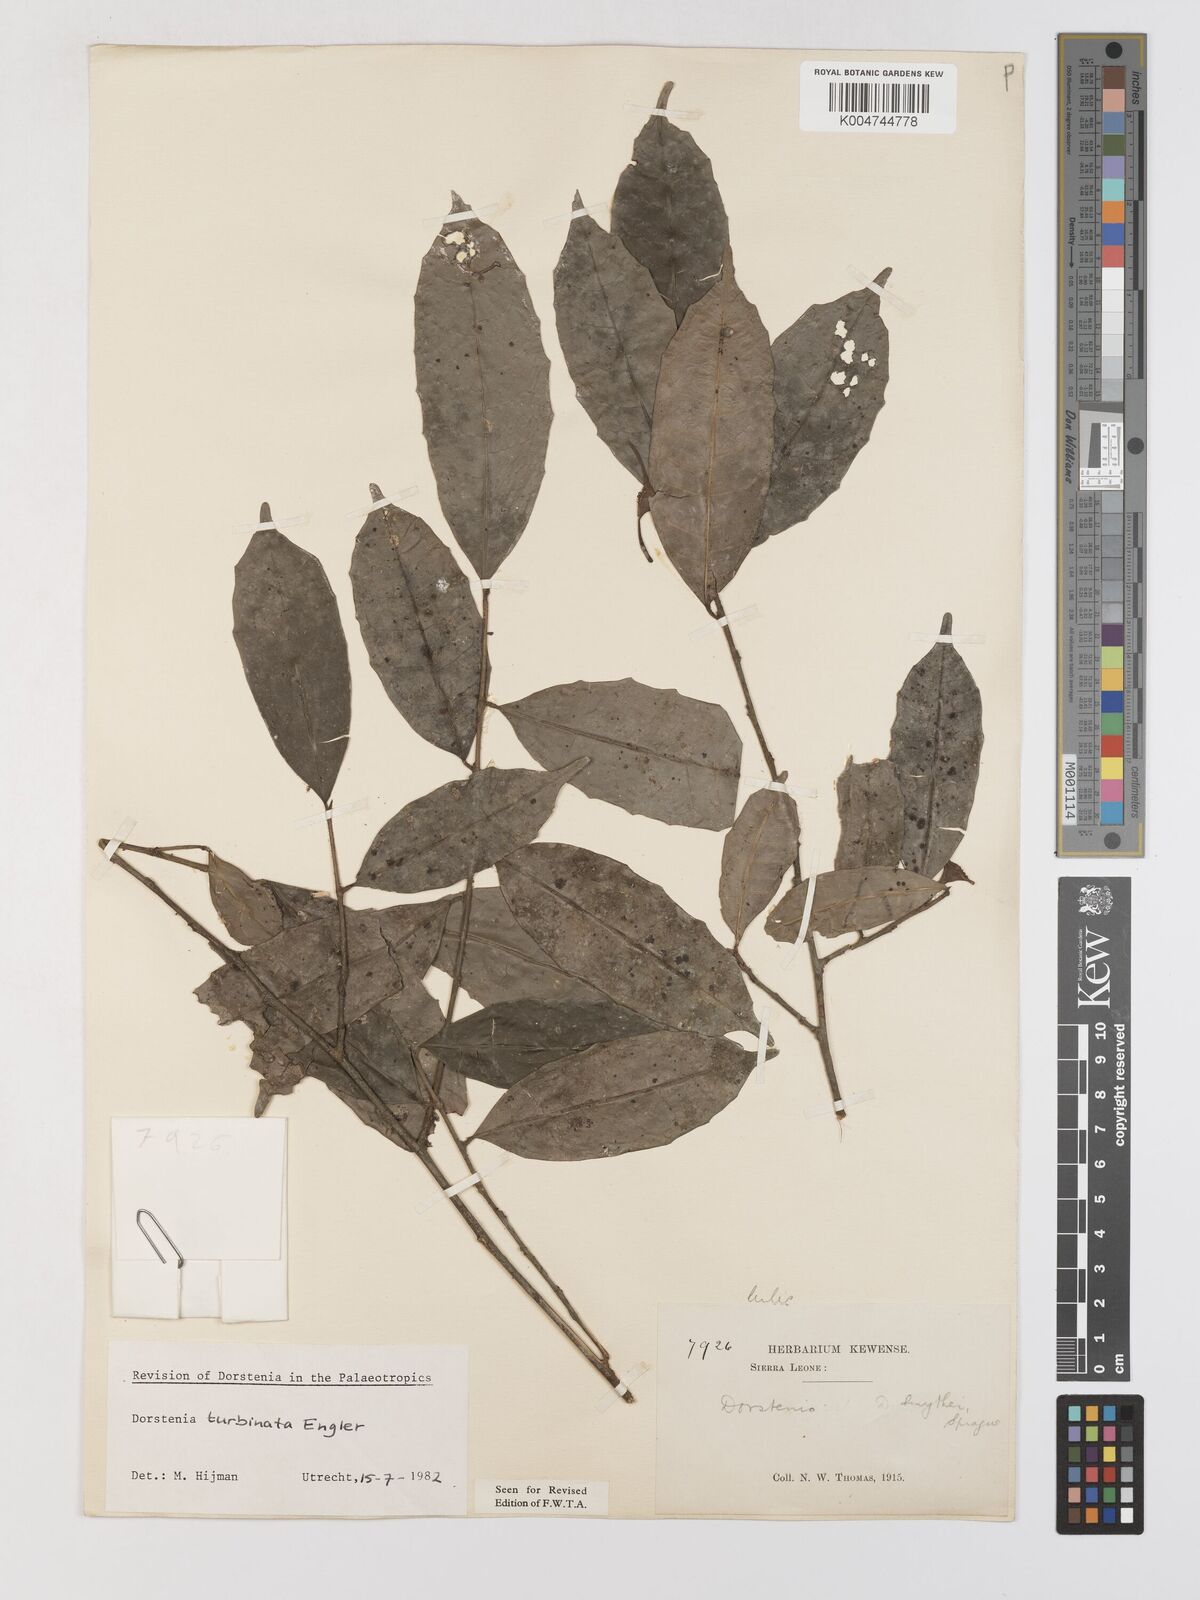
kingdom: Plantae
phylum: Tracheophyta
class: Magnoliopsida
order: Rosales
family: Moraceae
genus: Hijmania
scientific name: Hijmania turbinata
